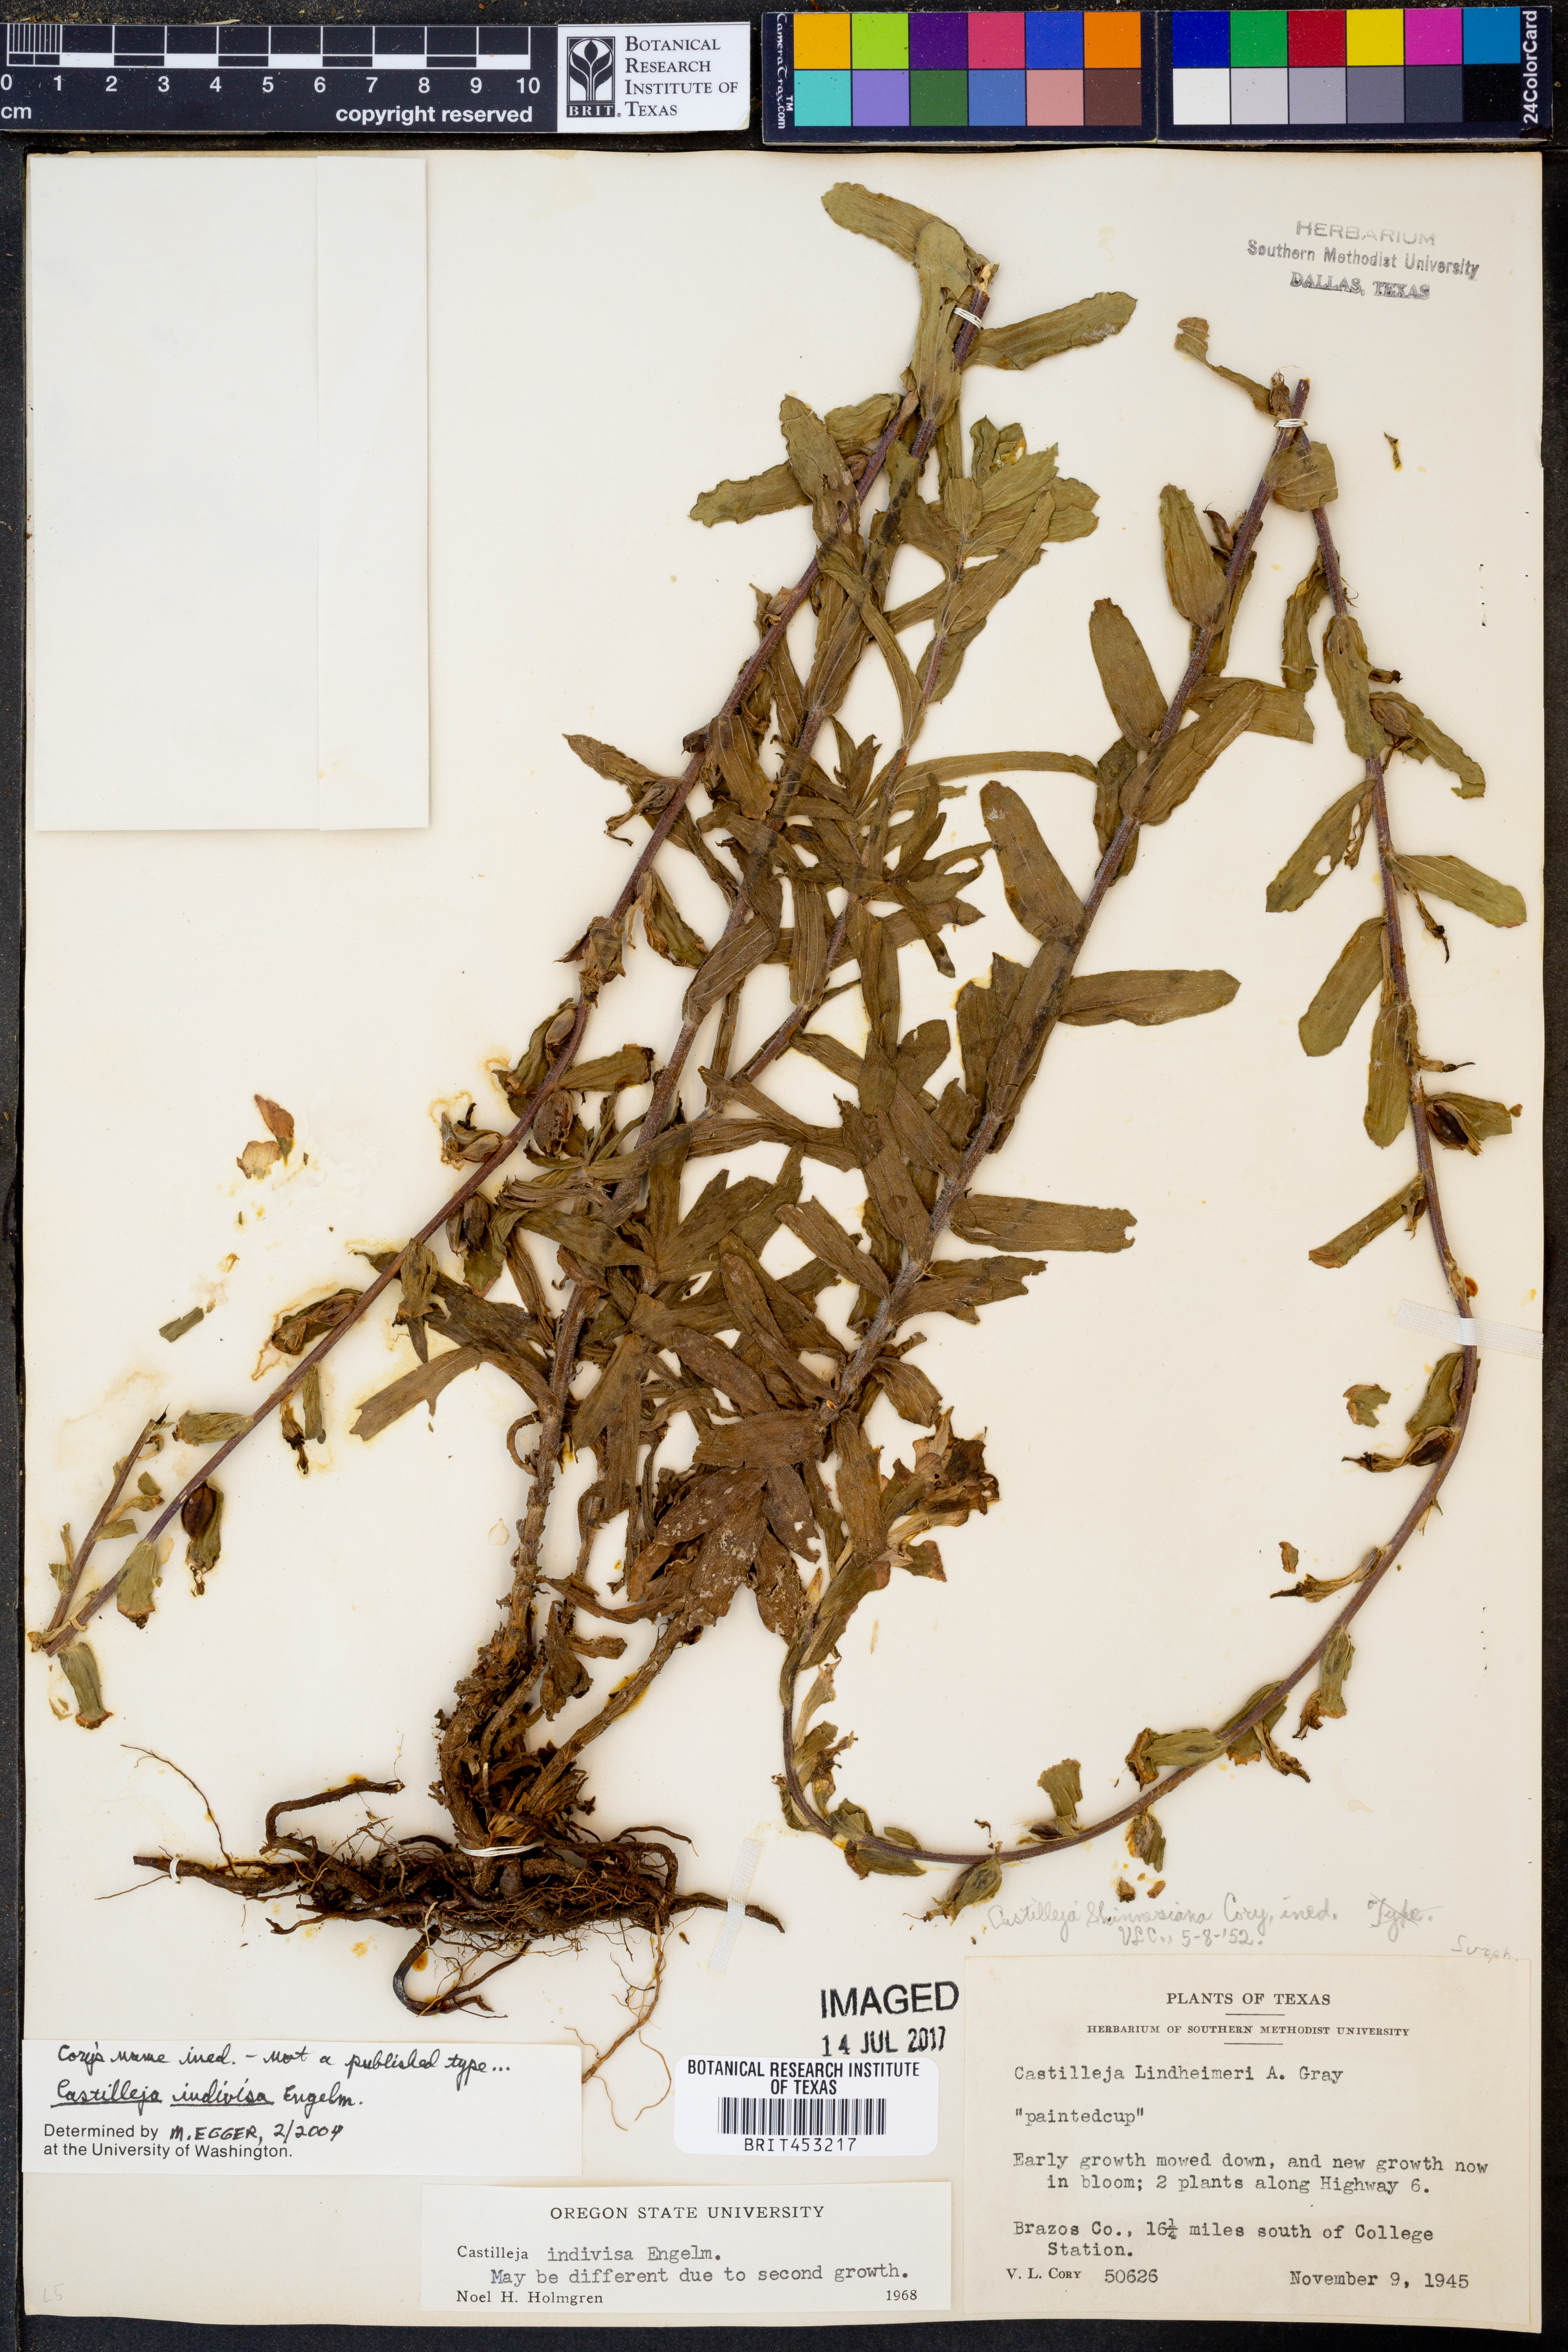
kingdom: Plantae
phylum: Tracheophyta
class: Magnoliopsida
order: Lamiales
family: Orobanchaceae
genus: Castilleja
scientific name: Castilleja indivisa
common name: Texas paintbrush
